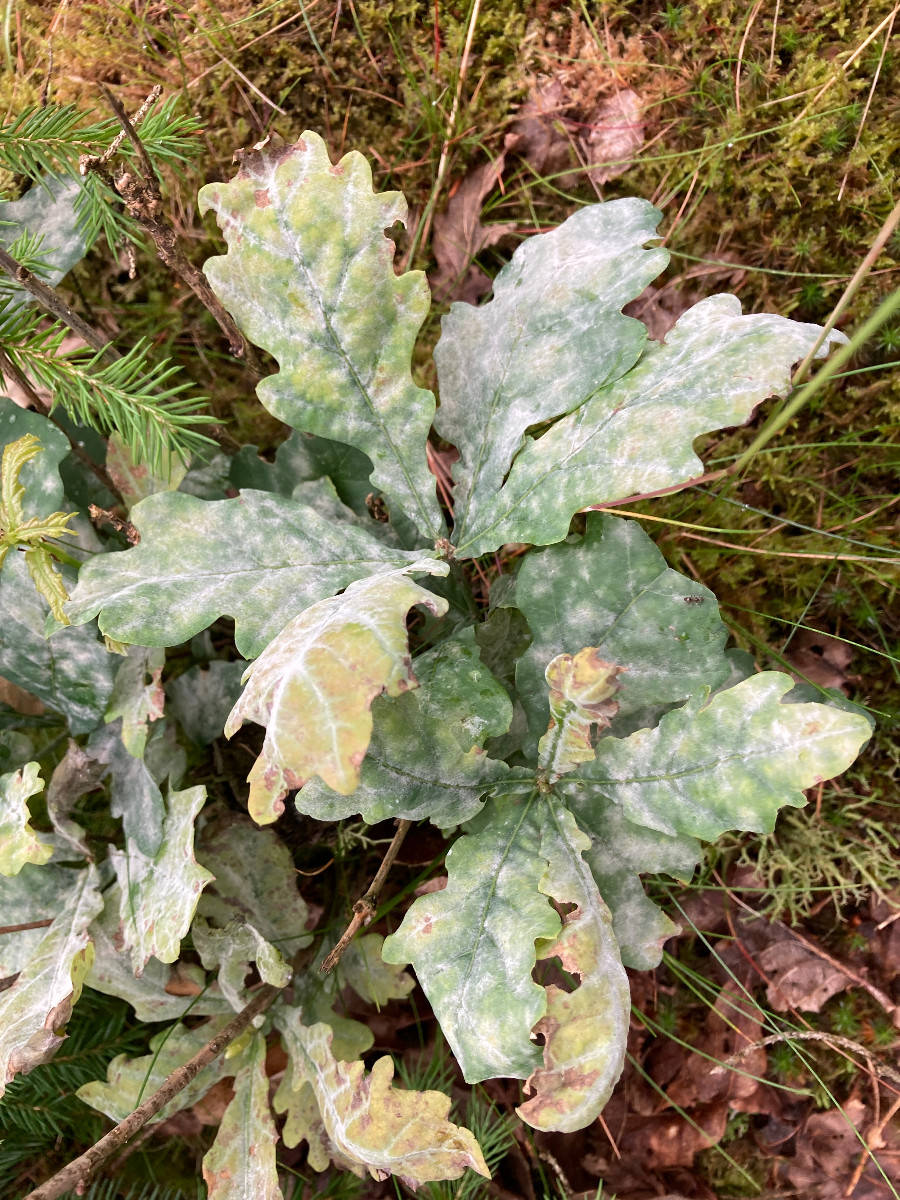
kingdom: Fungi
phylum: Ascomycota
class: Leotiomycetes
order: Helotiales
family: Erysiphaceae
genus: Erysiphe
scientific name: Erysiphe alphitoides
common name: ege-meldug
